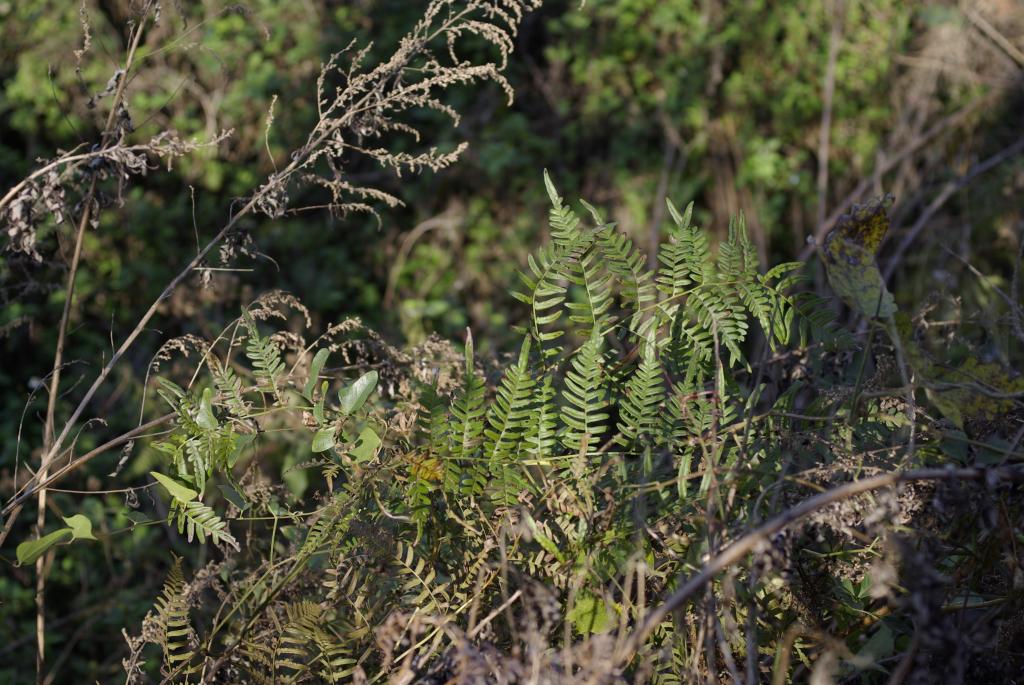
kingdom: Plantae
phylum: Tracheophyta
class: Polypodiopsida
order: Polypodiales
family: Dennstaedtiaceae
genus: Pteridium
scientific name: Pteridium aquilinum
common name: Bracken
